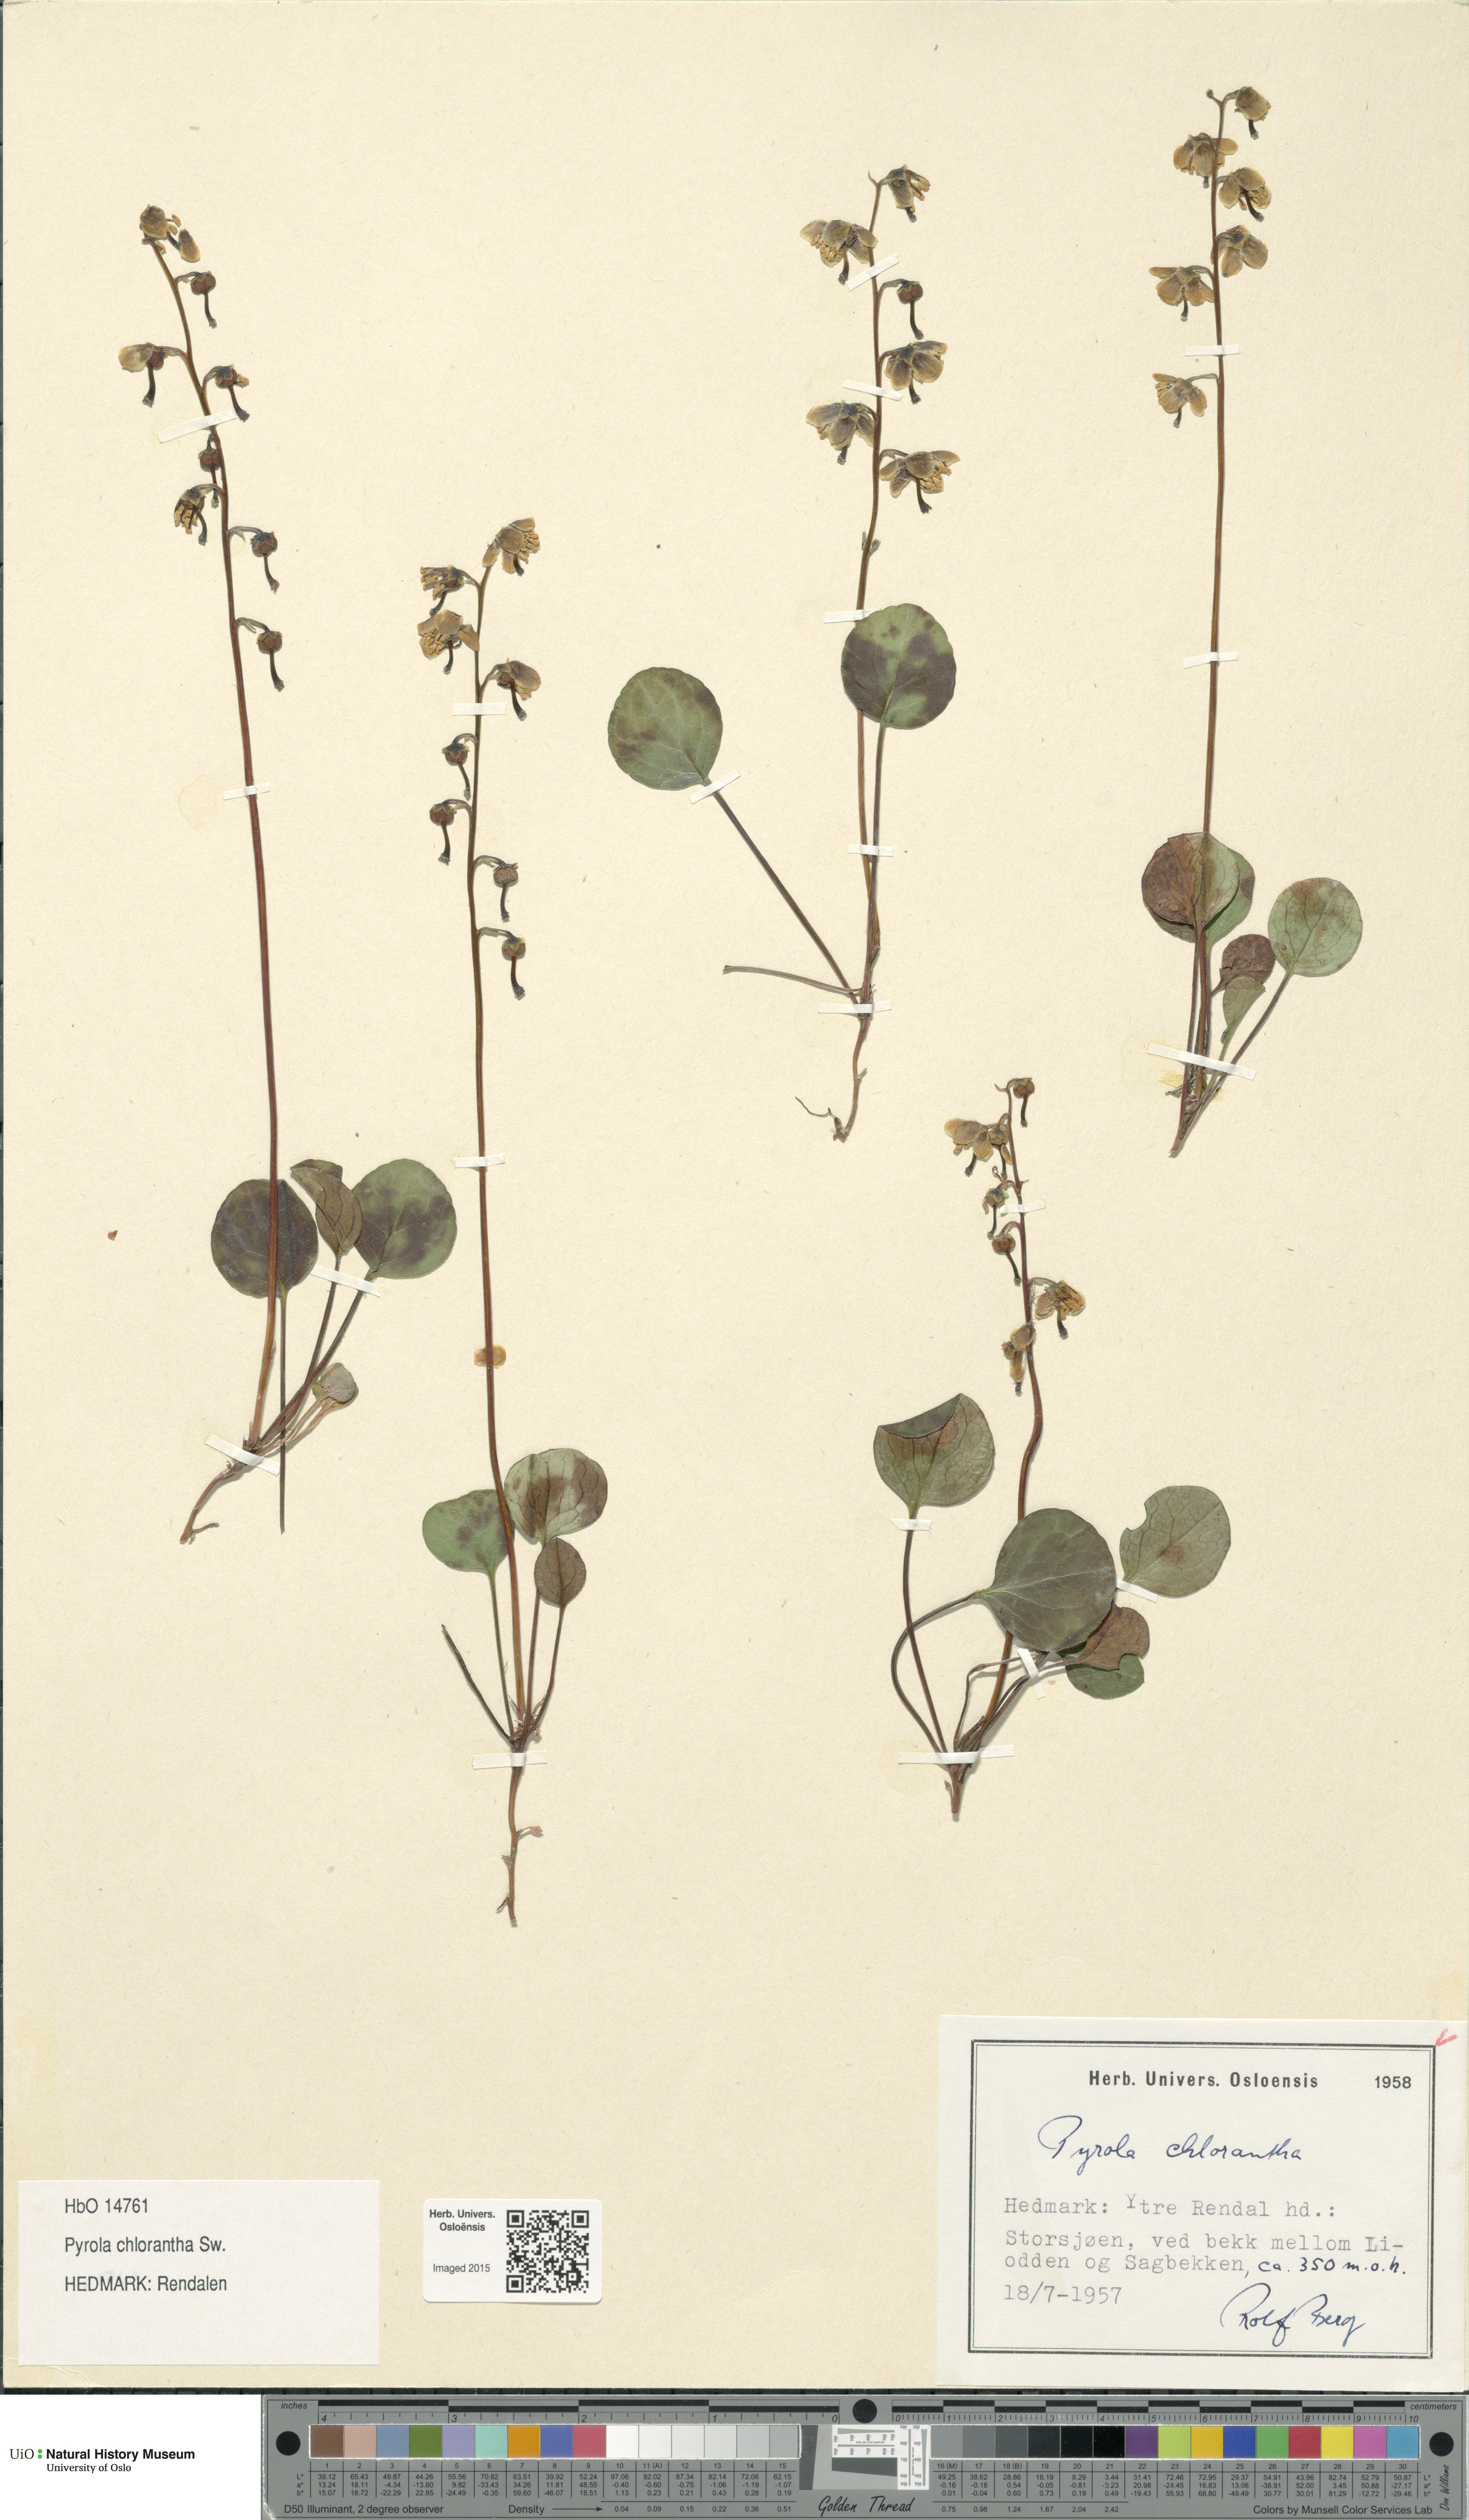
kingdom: Plantae
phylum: Tracheophyta
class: Magnoliopsida
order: Ericales
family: Ericaceae
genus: Pyrola
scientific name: Pyrola chlorantha
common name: Green wintergreen
